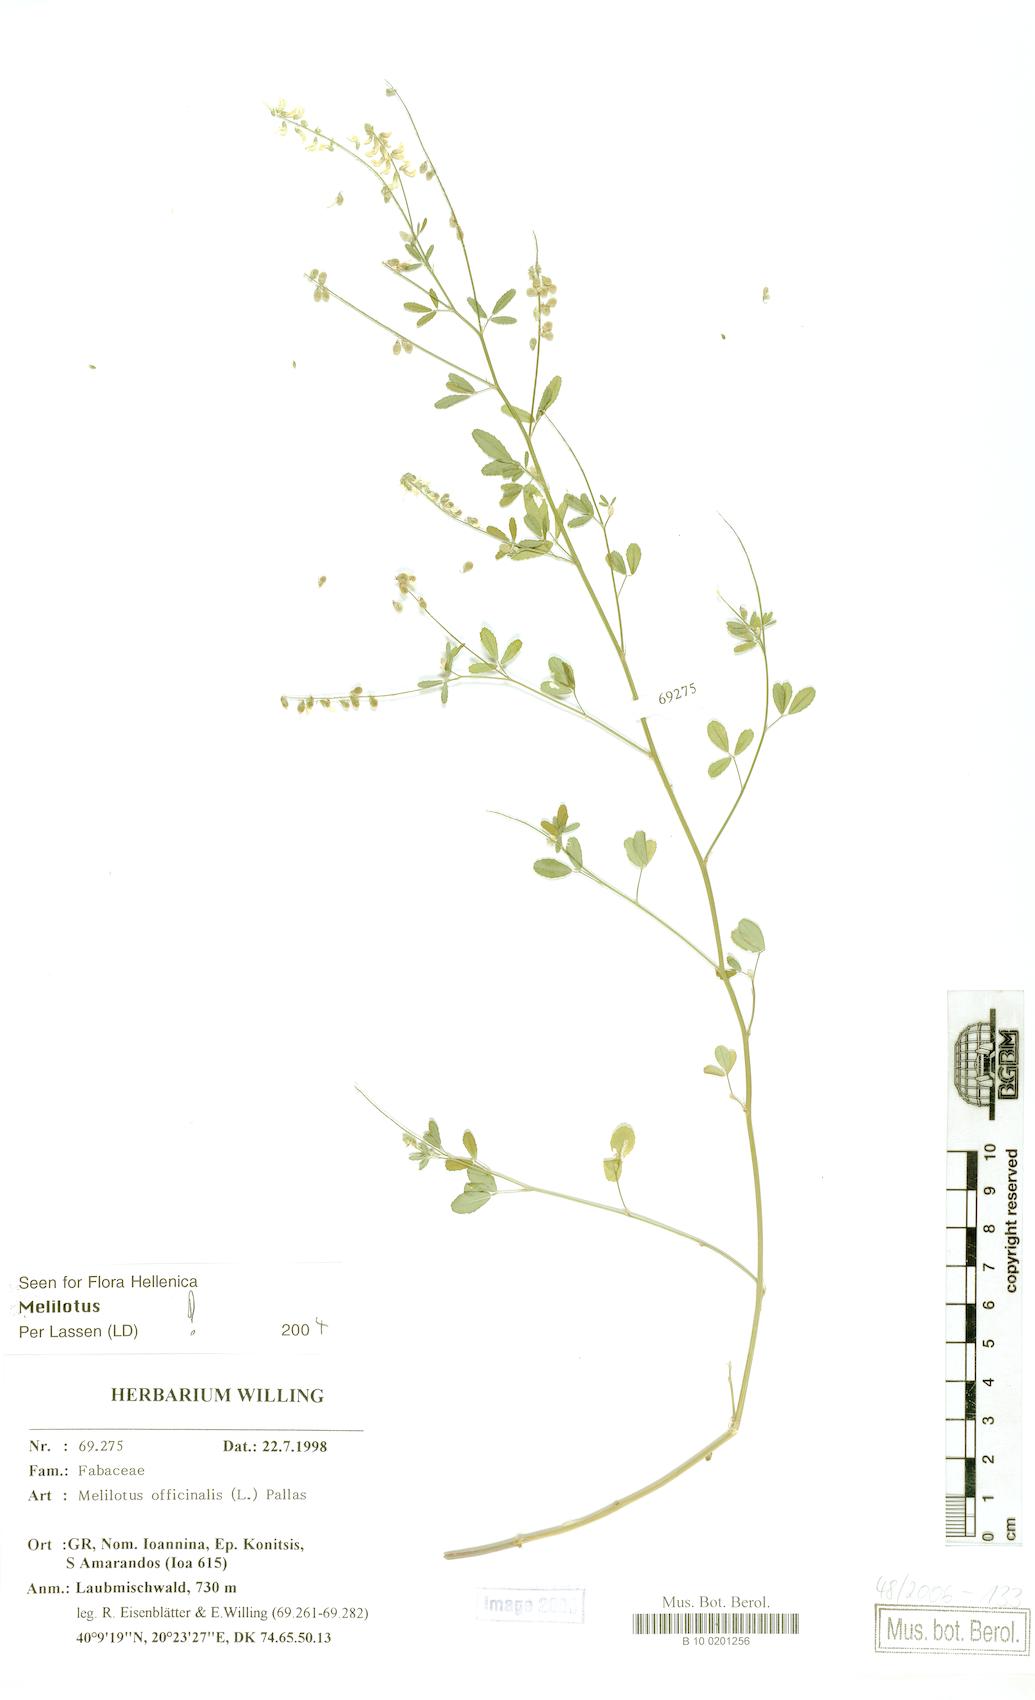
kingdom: Plantae
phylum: Tracheophyta
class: Magnoliopsida
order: Fabales
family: Fabaceae
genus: Melilotus
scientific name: Melilotus officinalis
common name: Sweetclover
